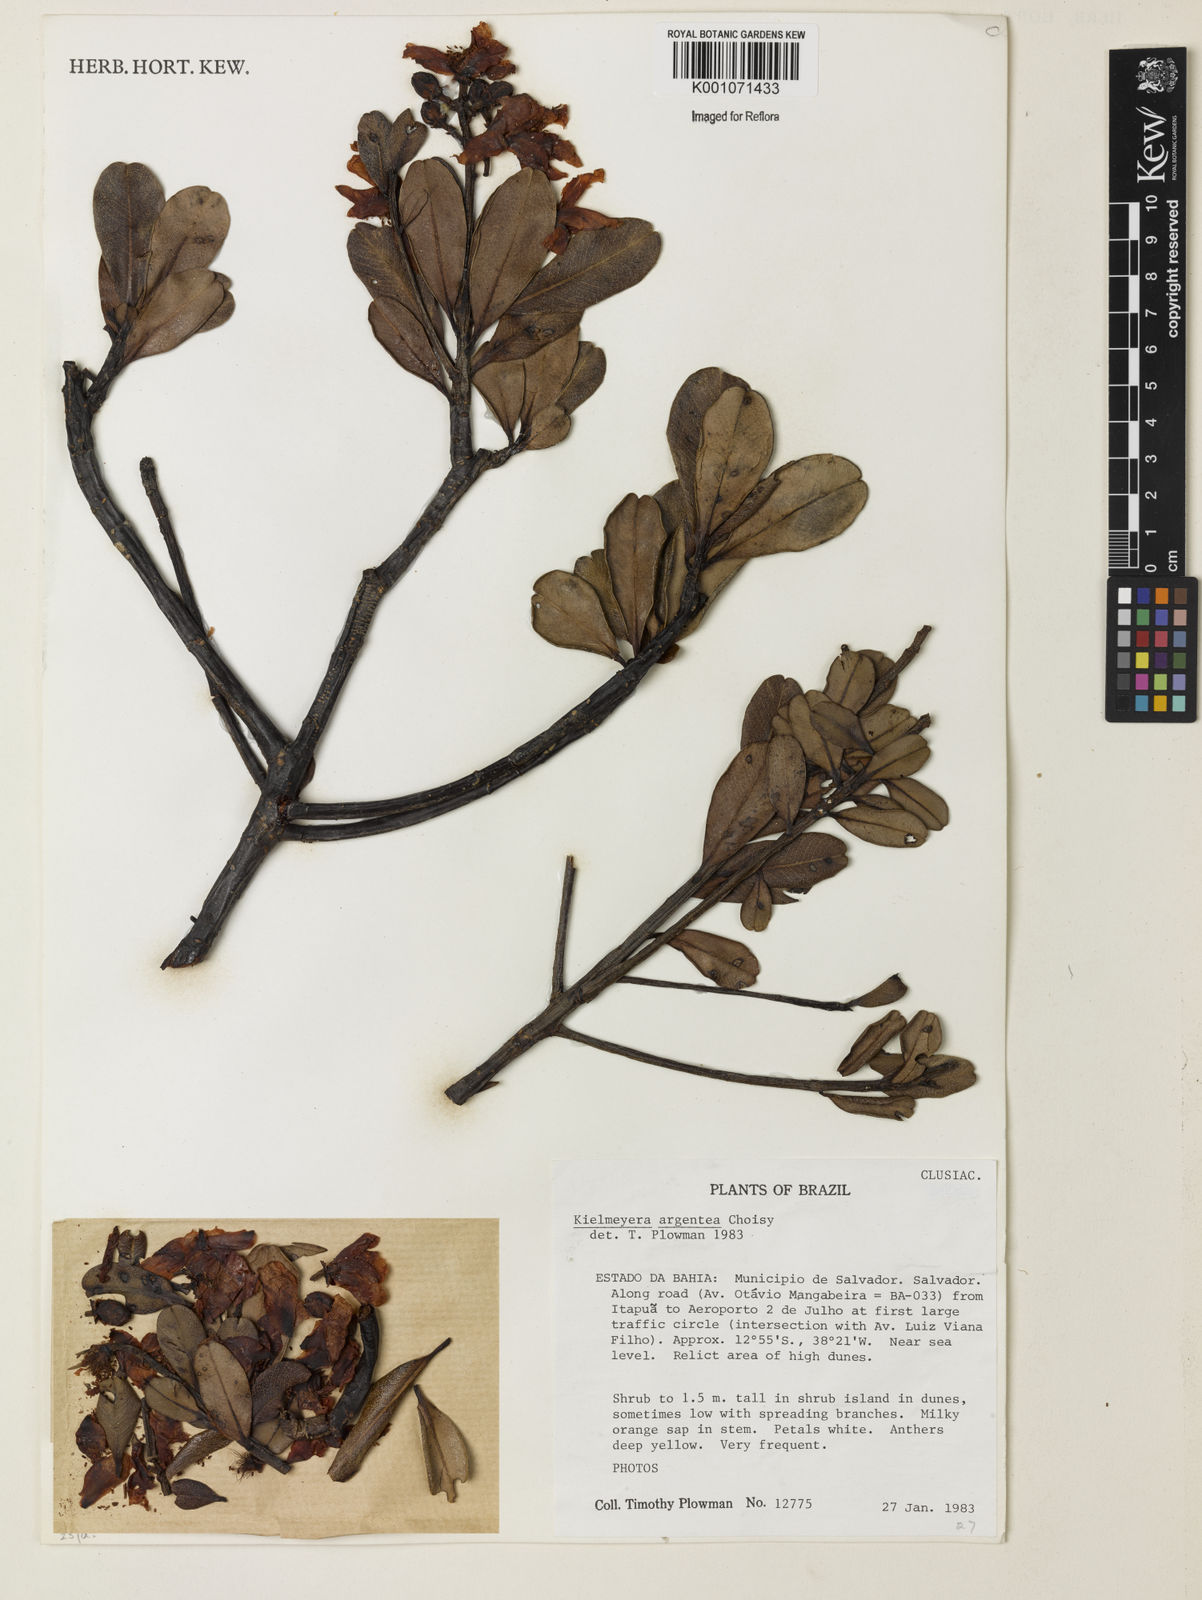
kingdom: Plantae
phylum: Tracheophyta
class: Magnoliopsida
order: Malpighiales
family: Calophyllaceae
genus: Kielmeyera
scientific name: Kielmeyera argentea
